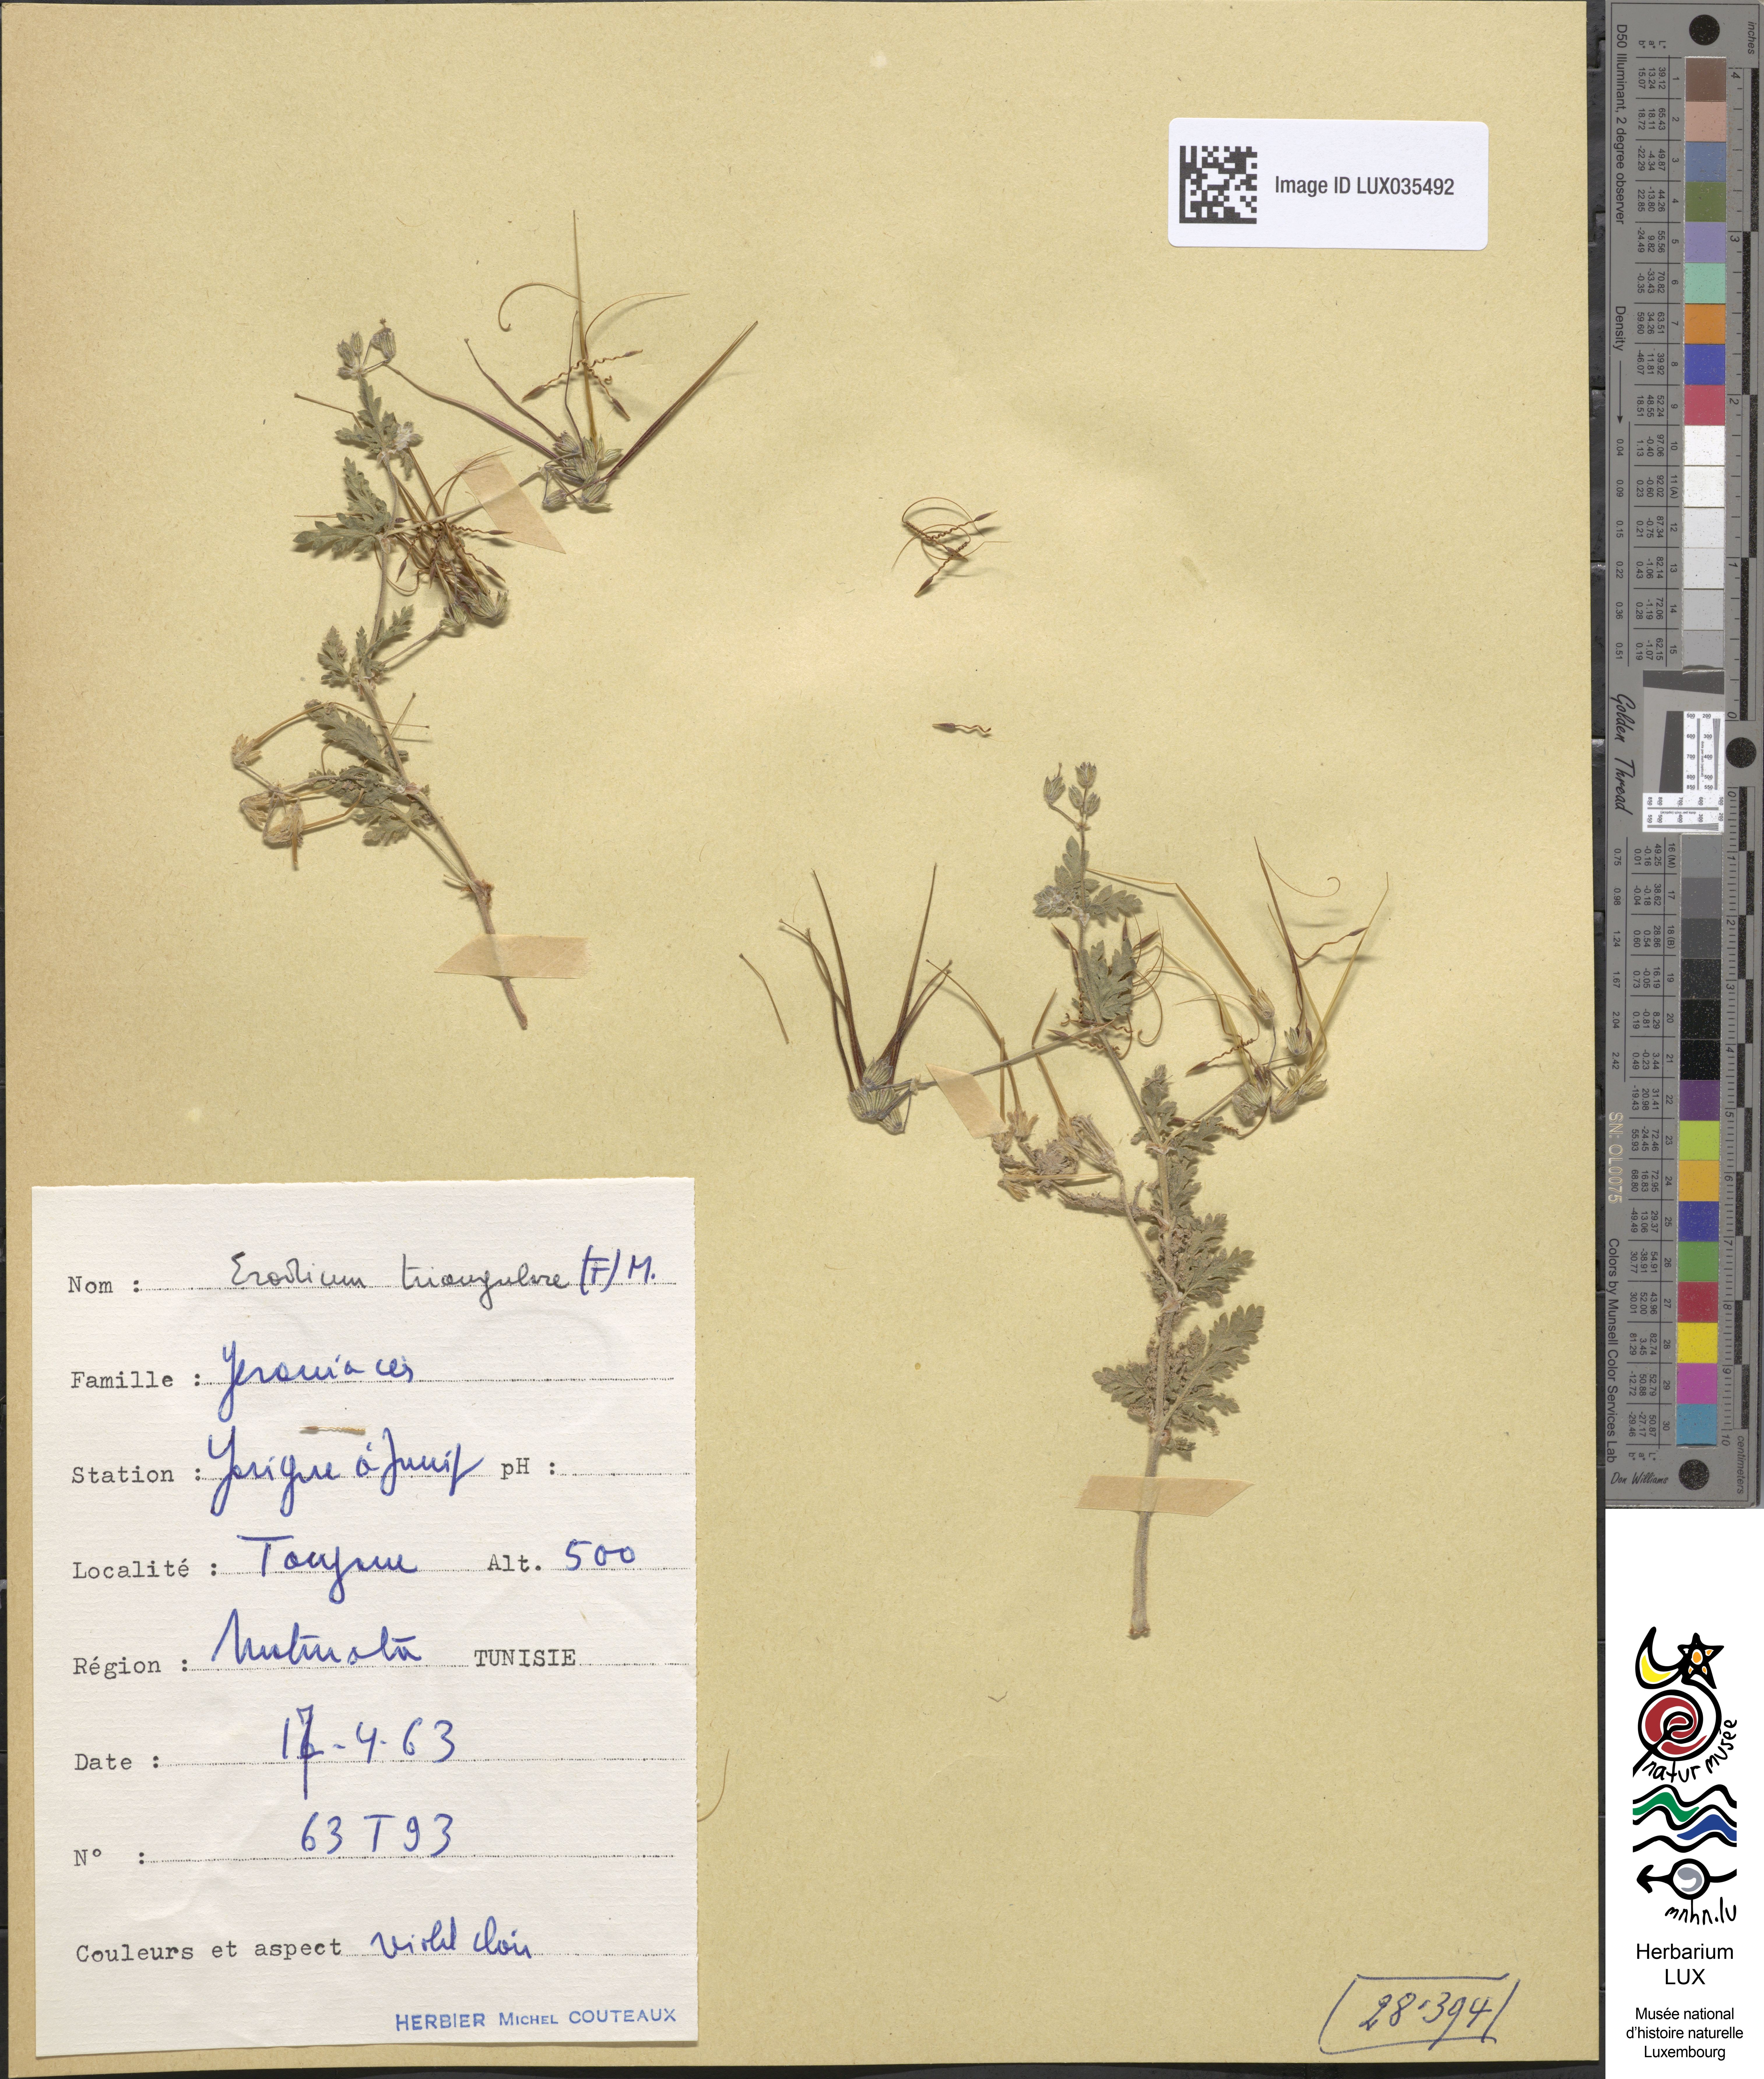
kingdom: Plantae
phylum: Tracheophyta
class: Magnoliopsida
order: Geraniales
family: Geraniaceae
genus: Erodium
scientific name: Erodium laciniatum
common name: Cutleaf stork's bill
